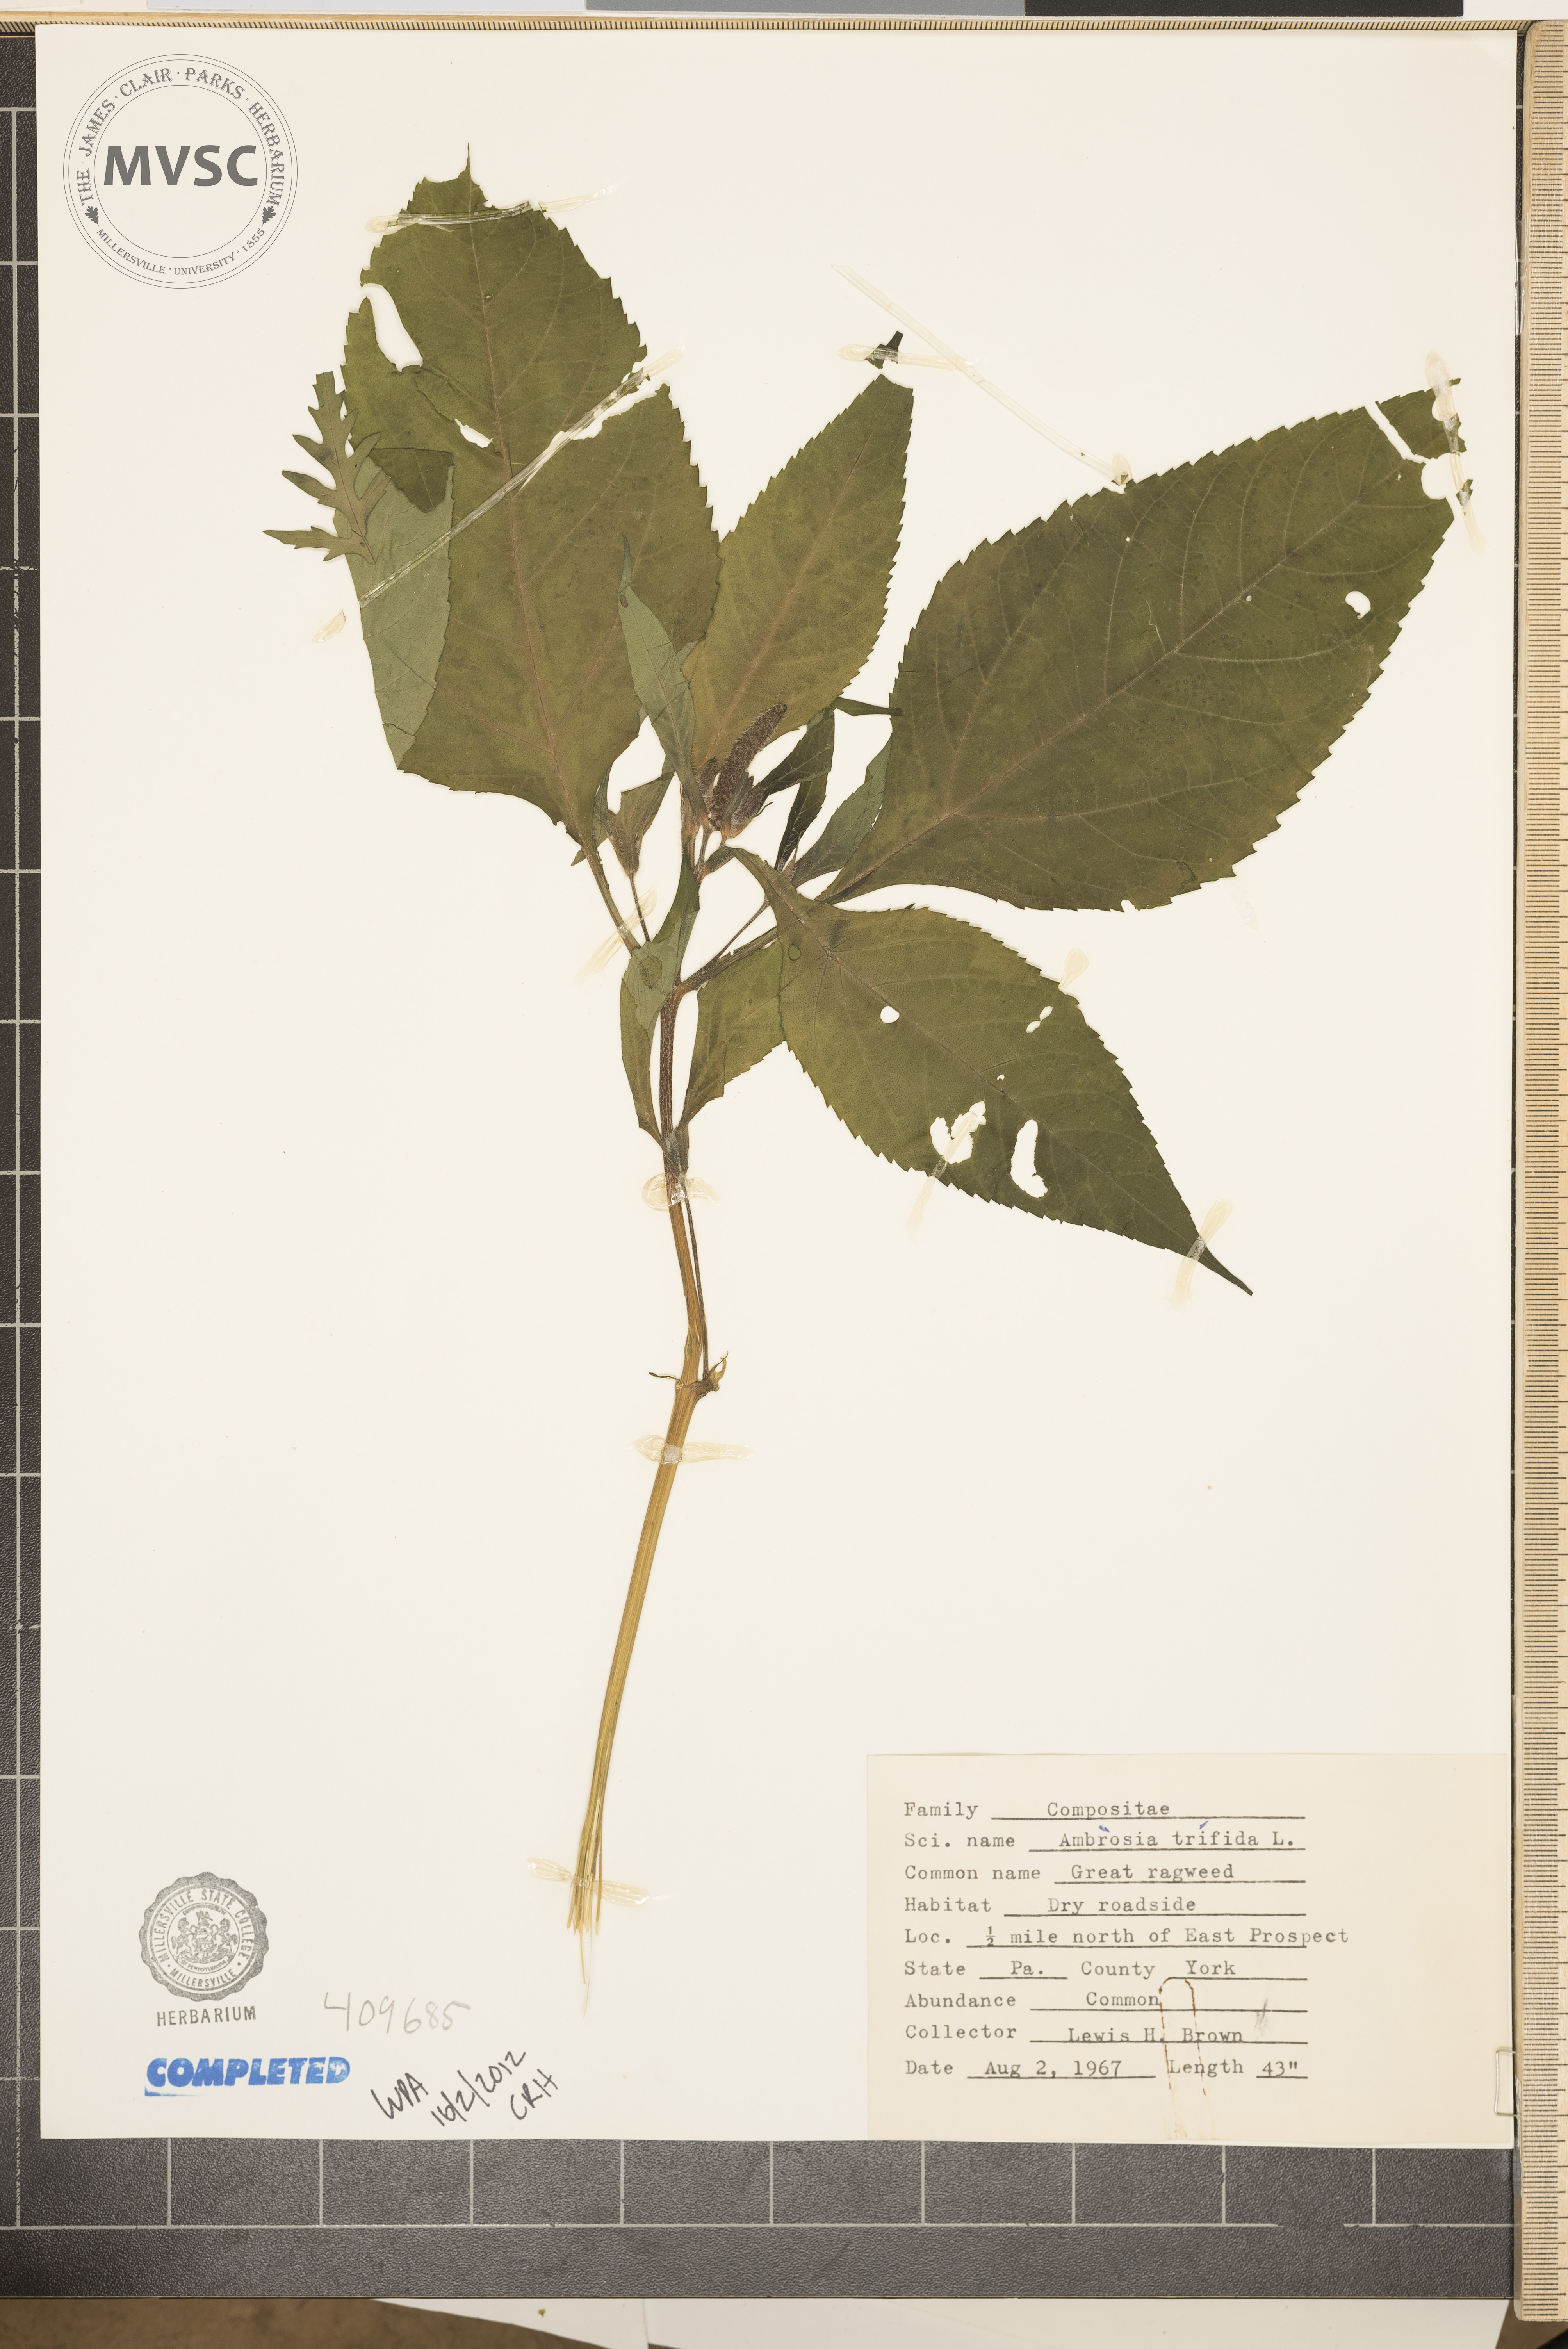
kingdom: Plantae
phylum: Tracheophyta
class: Magnoliopsida
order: Asterales
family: Asteraceae
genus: Ambrosia
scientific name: Ambrosia trifida
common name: Giant ragweed
